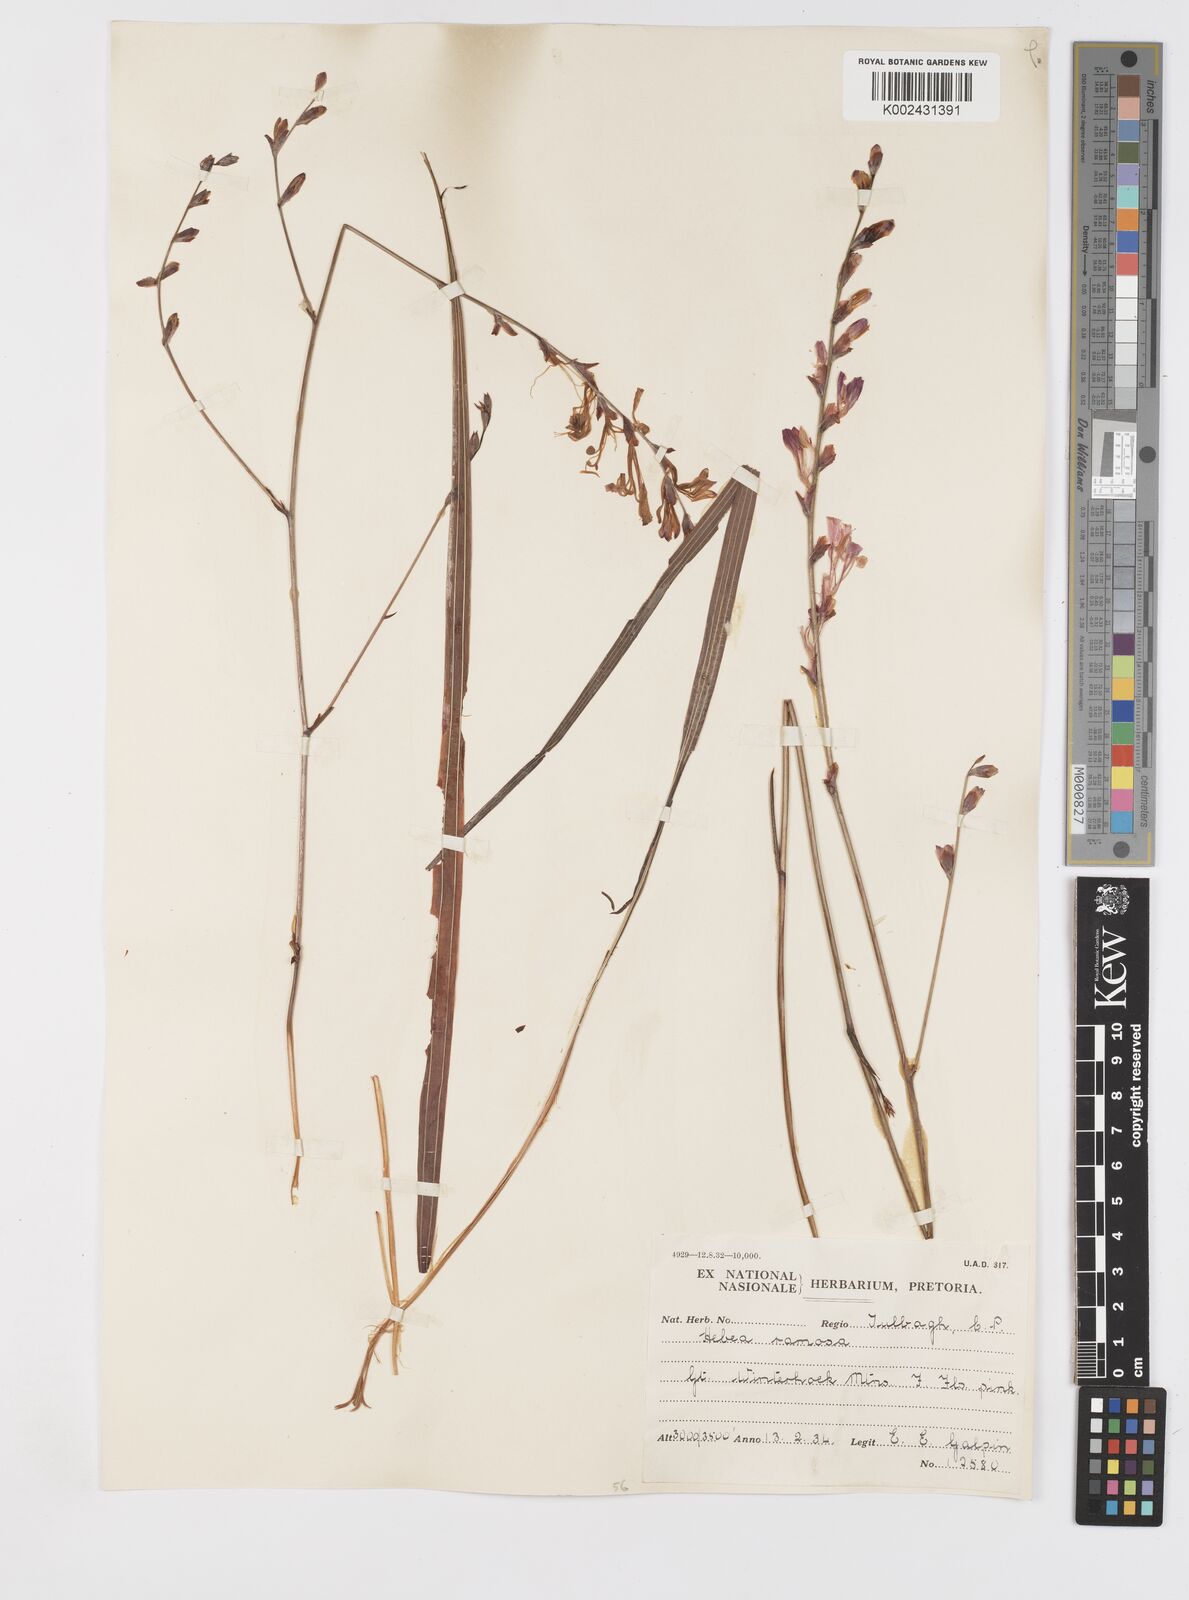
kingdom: Plantae
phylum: Tracheophyta
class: Liliopsida
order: Asparagales
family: Iridaceae
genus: Tritoniopsis
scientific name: Tritoniopsis ramosa
